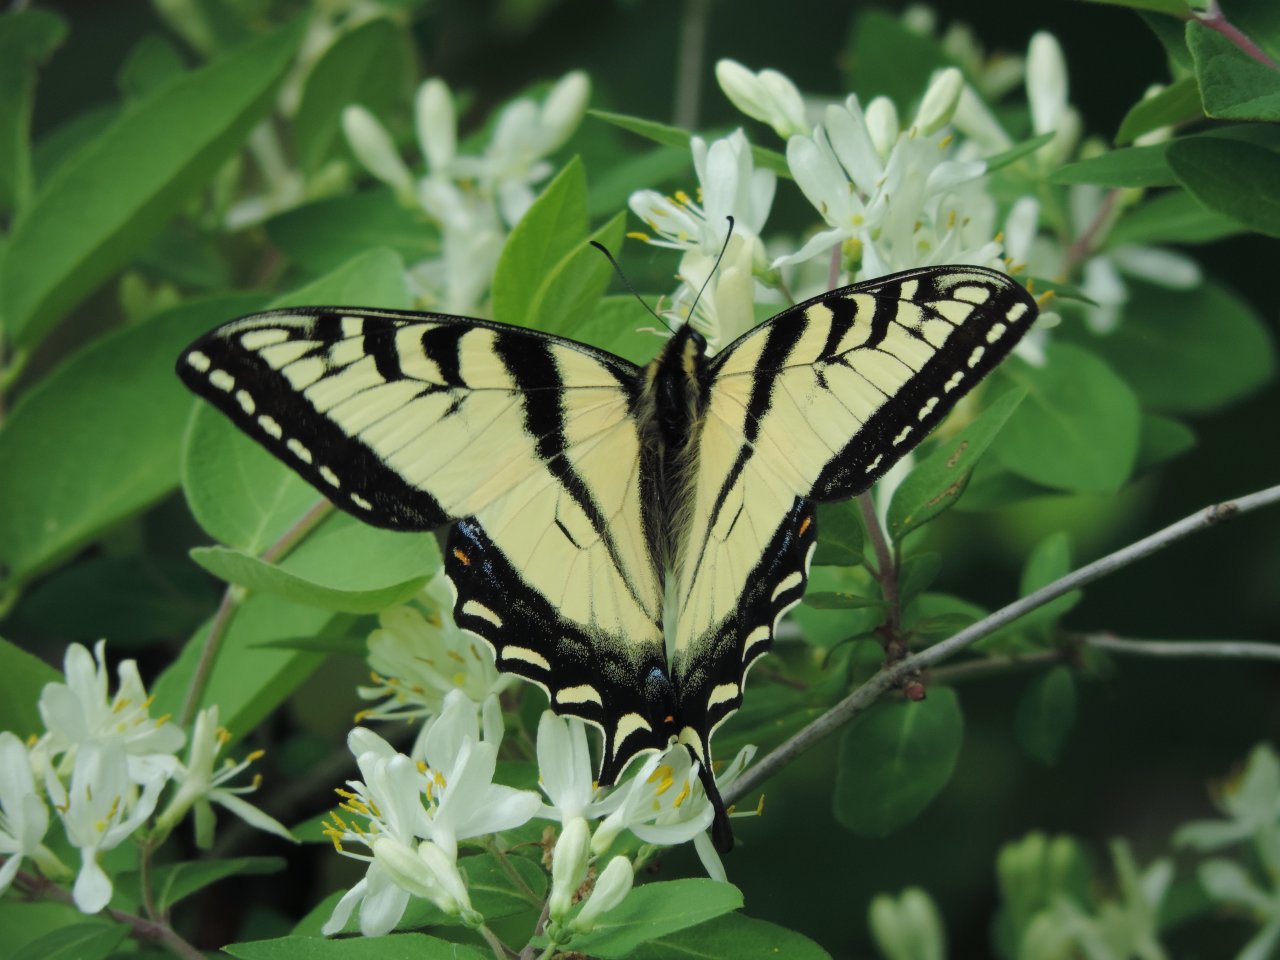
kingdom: Animalia
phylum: Arthropoda
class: Insecta
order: Lepidoptera
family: Papilionidae
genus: Pterourus
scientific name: Pterourus canadensis
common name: Canadian Tiger Swallowtail
